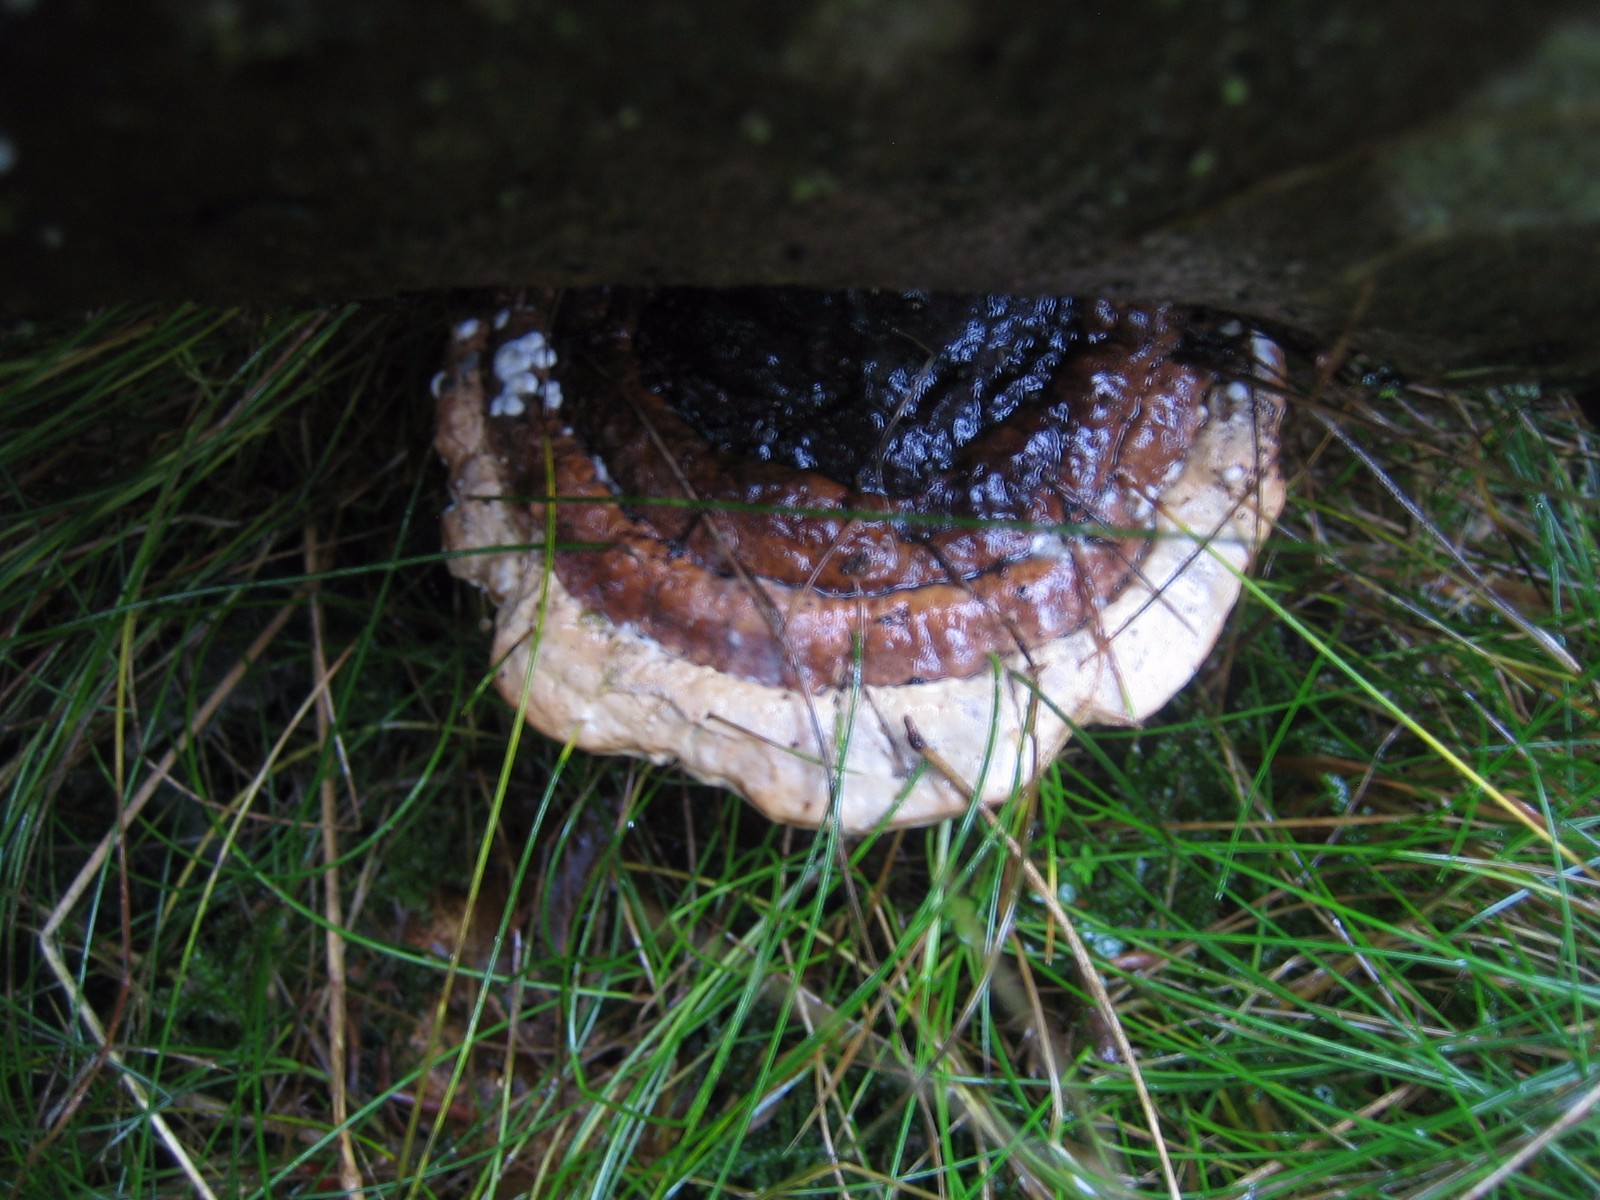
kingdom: Fungi
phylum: Basidiomycota
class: Agaricomycetes
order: Polyporales
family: Fomitopsidaceae
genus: Fomitopsis
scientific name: Fomitopsis pinicola
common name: randbæltet hovporesvamp
